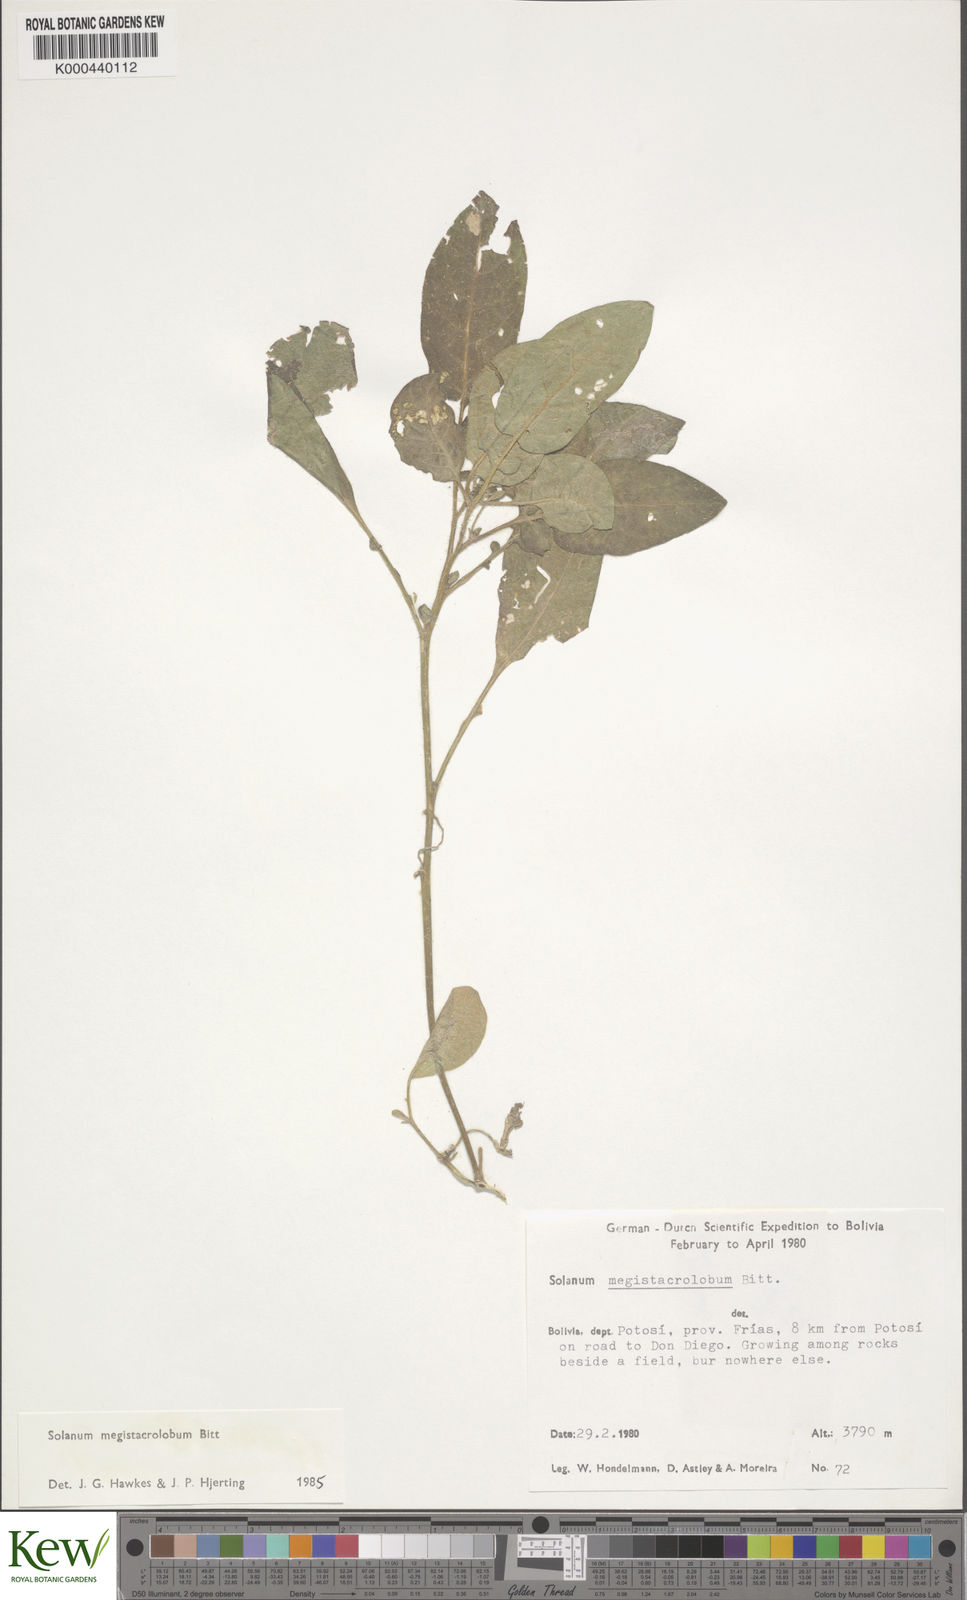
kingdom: Plantae
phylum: Tracheophyta
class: Magnoliopsida
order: Solanales
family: Solanaceae
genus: Solanum
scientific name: Solanum boliviense
